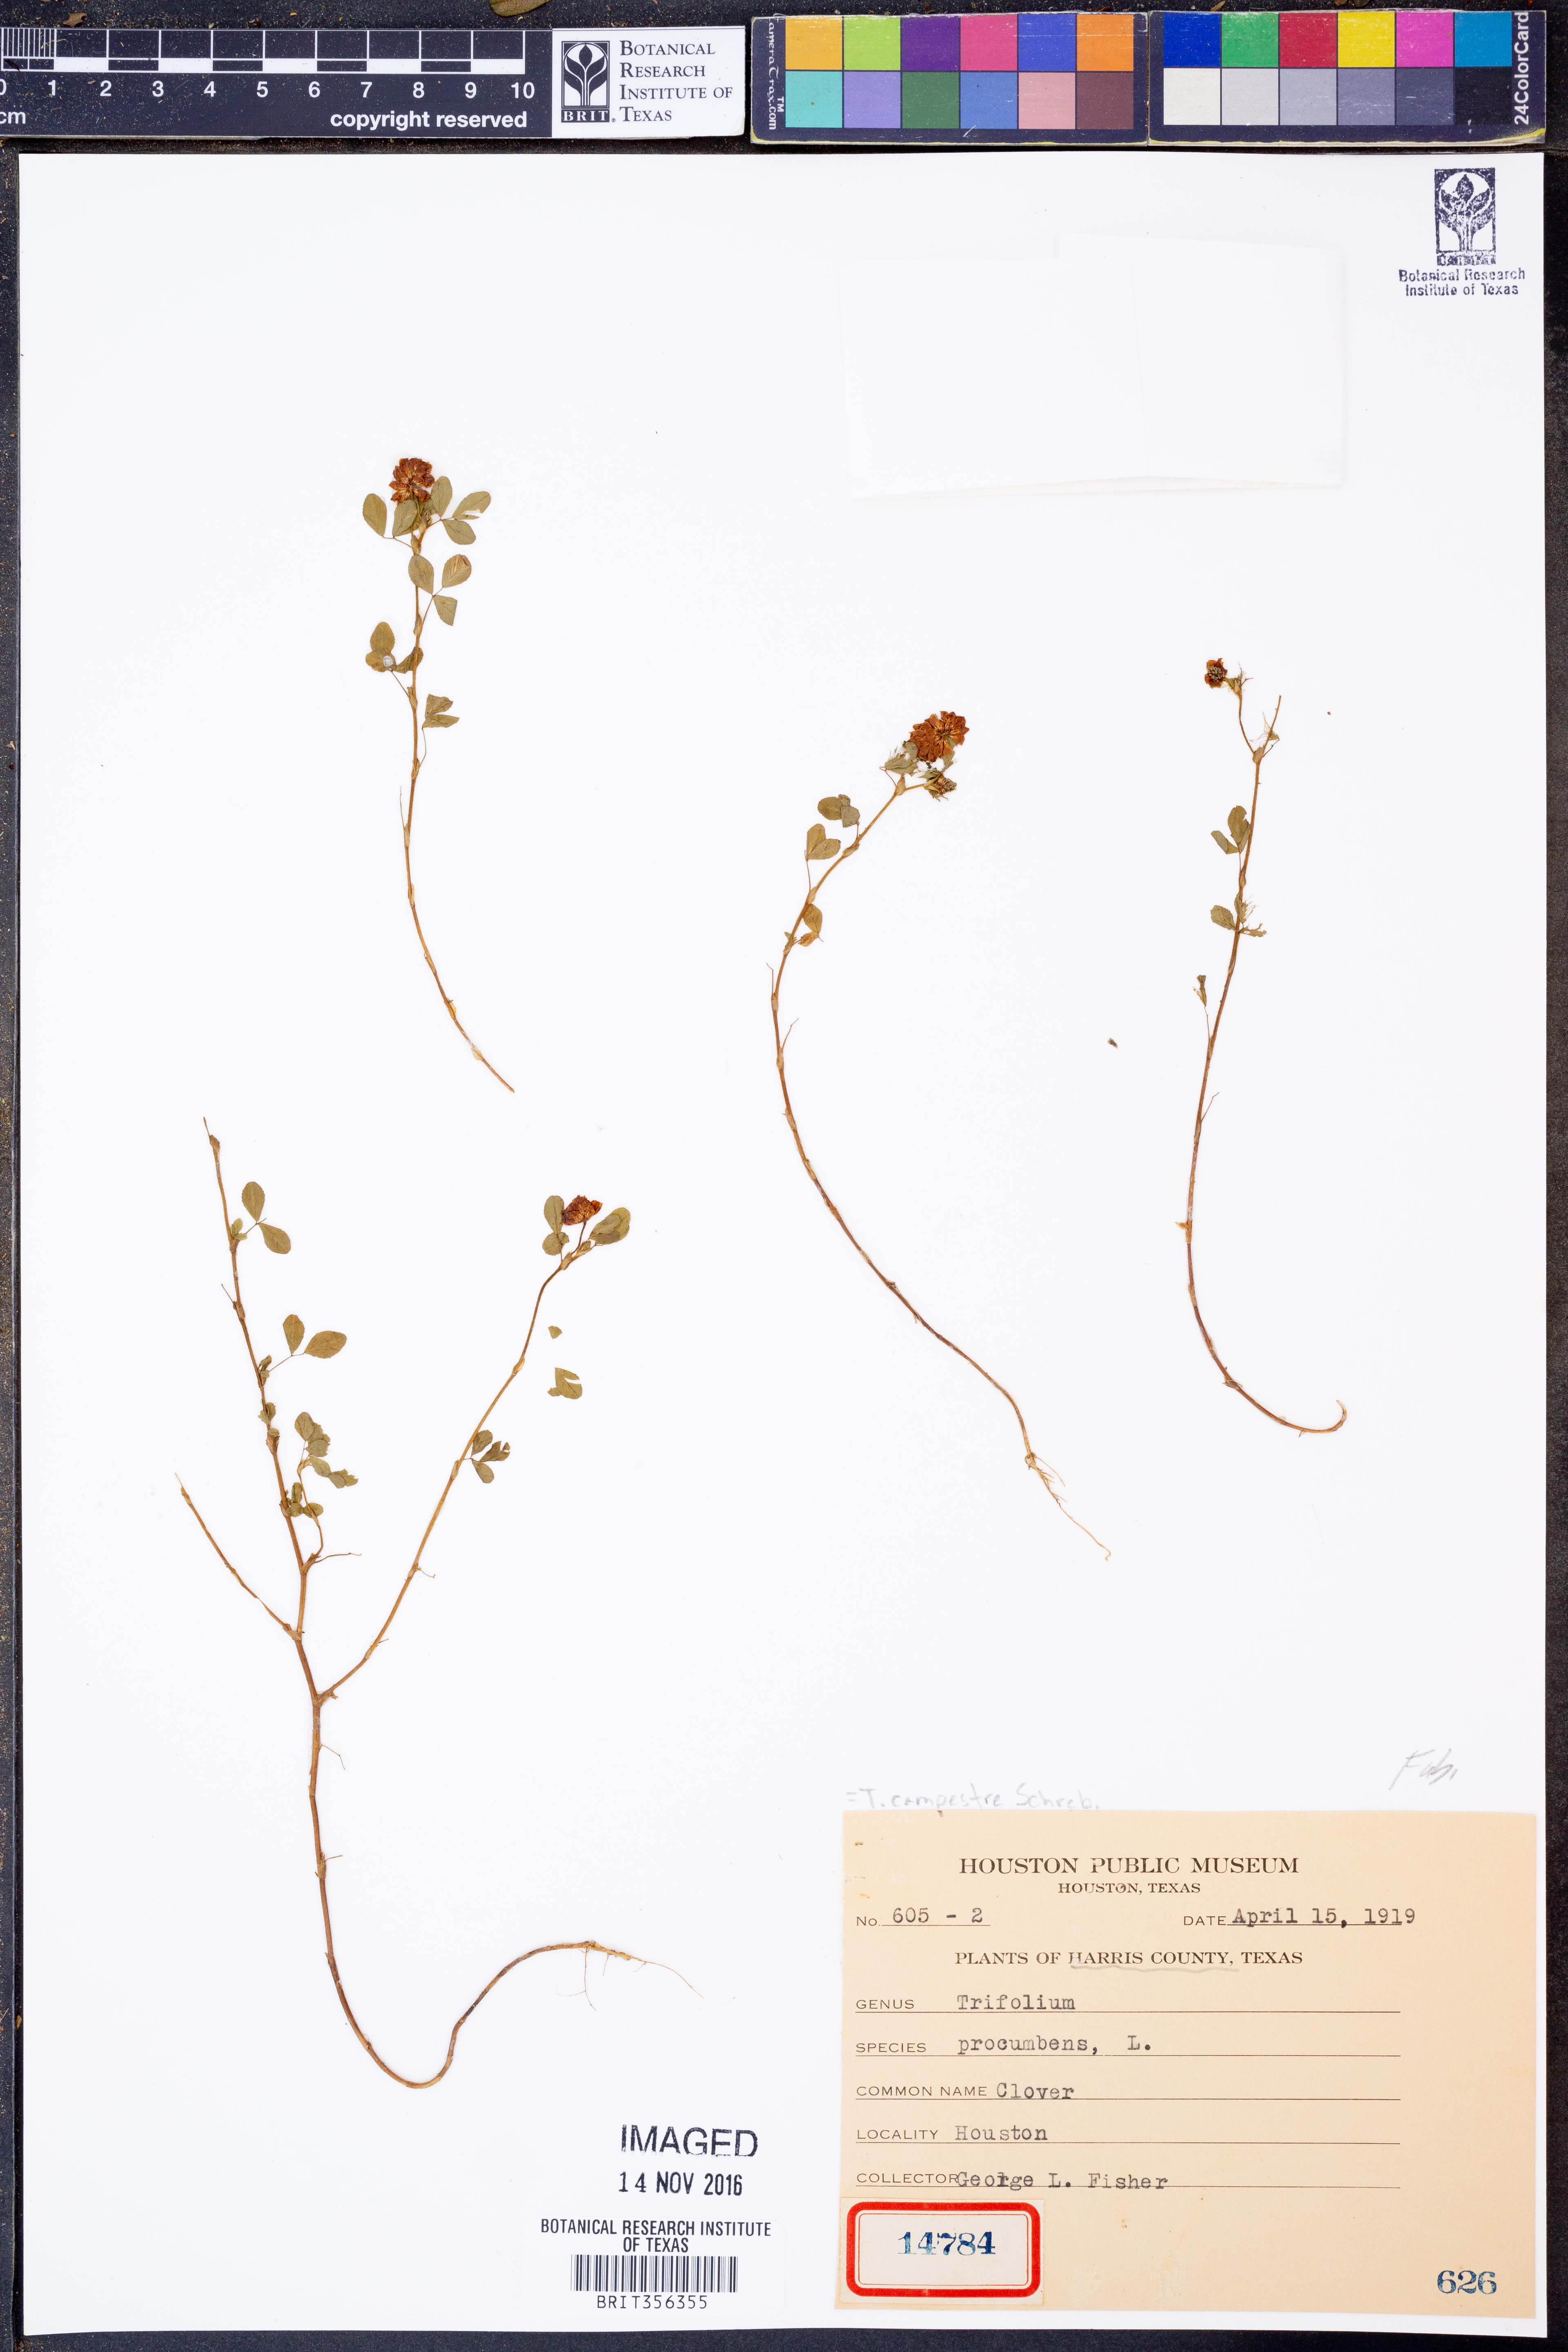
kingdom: Plantae
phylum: Tracheophyta
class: Magnoliopsida
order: Fabales
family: Fabaceae
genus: Trifolium
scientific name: Trifolium campestre
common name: Field clover
